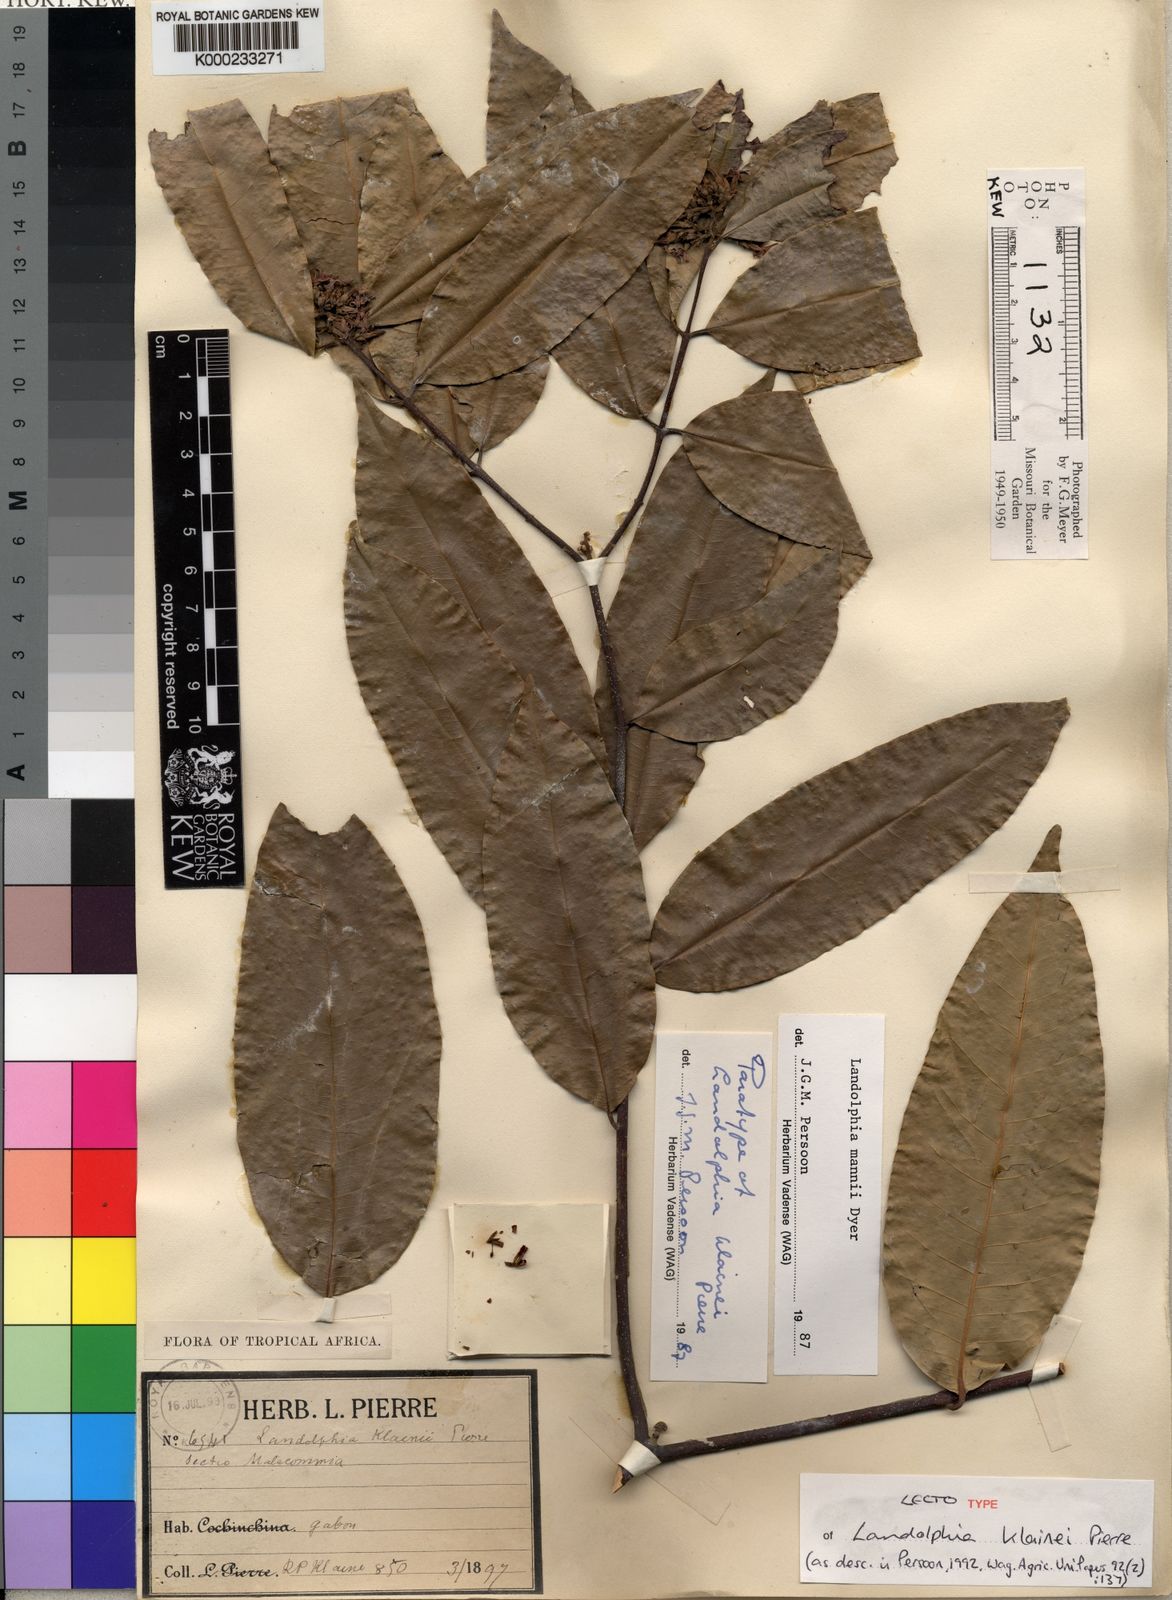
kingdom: Plantae
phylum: Tracheophyta
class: Magnoliopsida
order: Gentianales
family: Apocynaceae
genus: Landolphia
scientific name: Landolphia mannii
